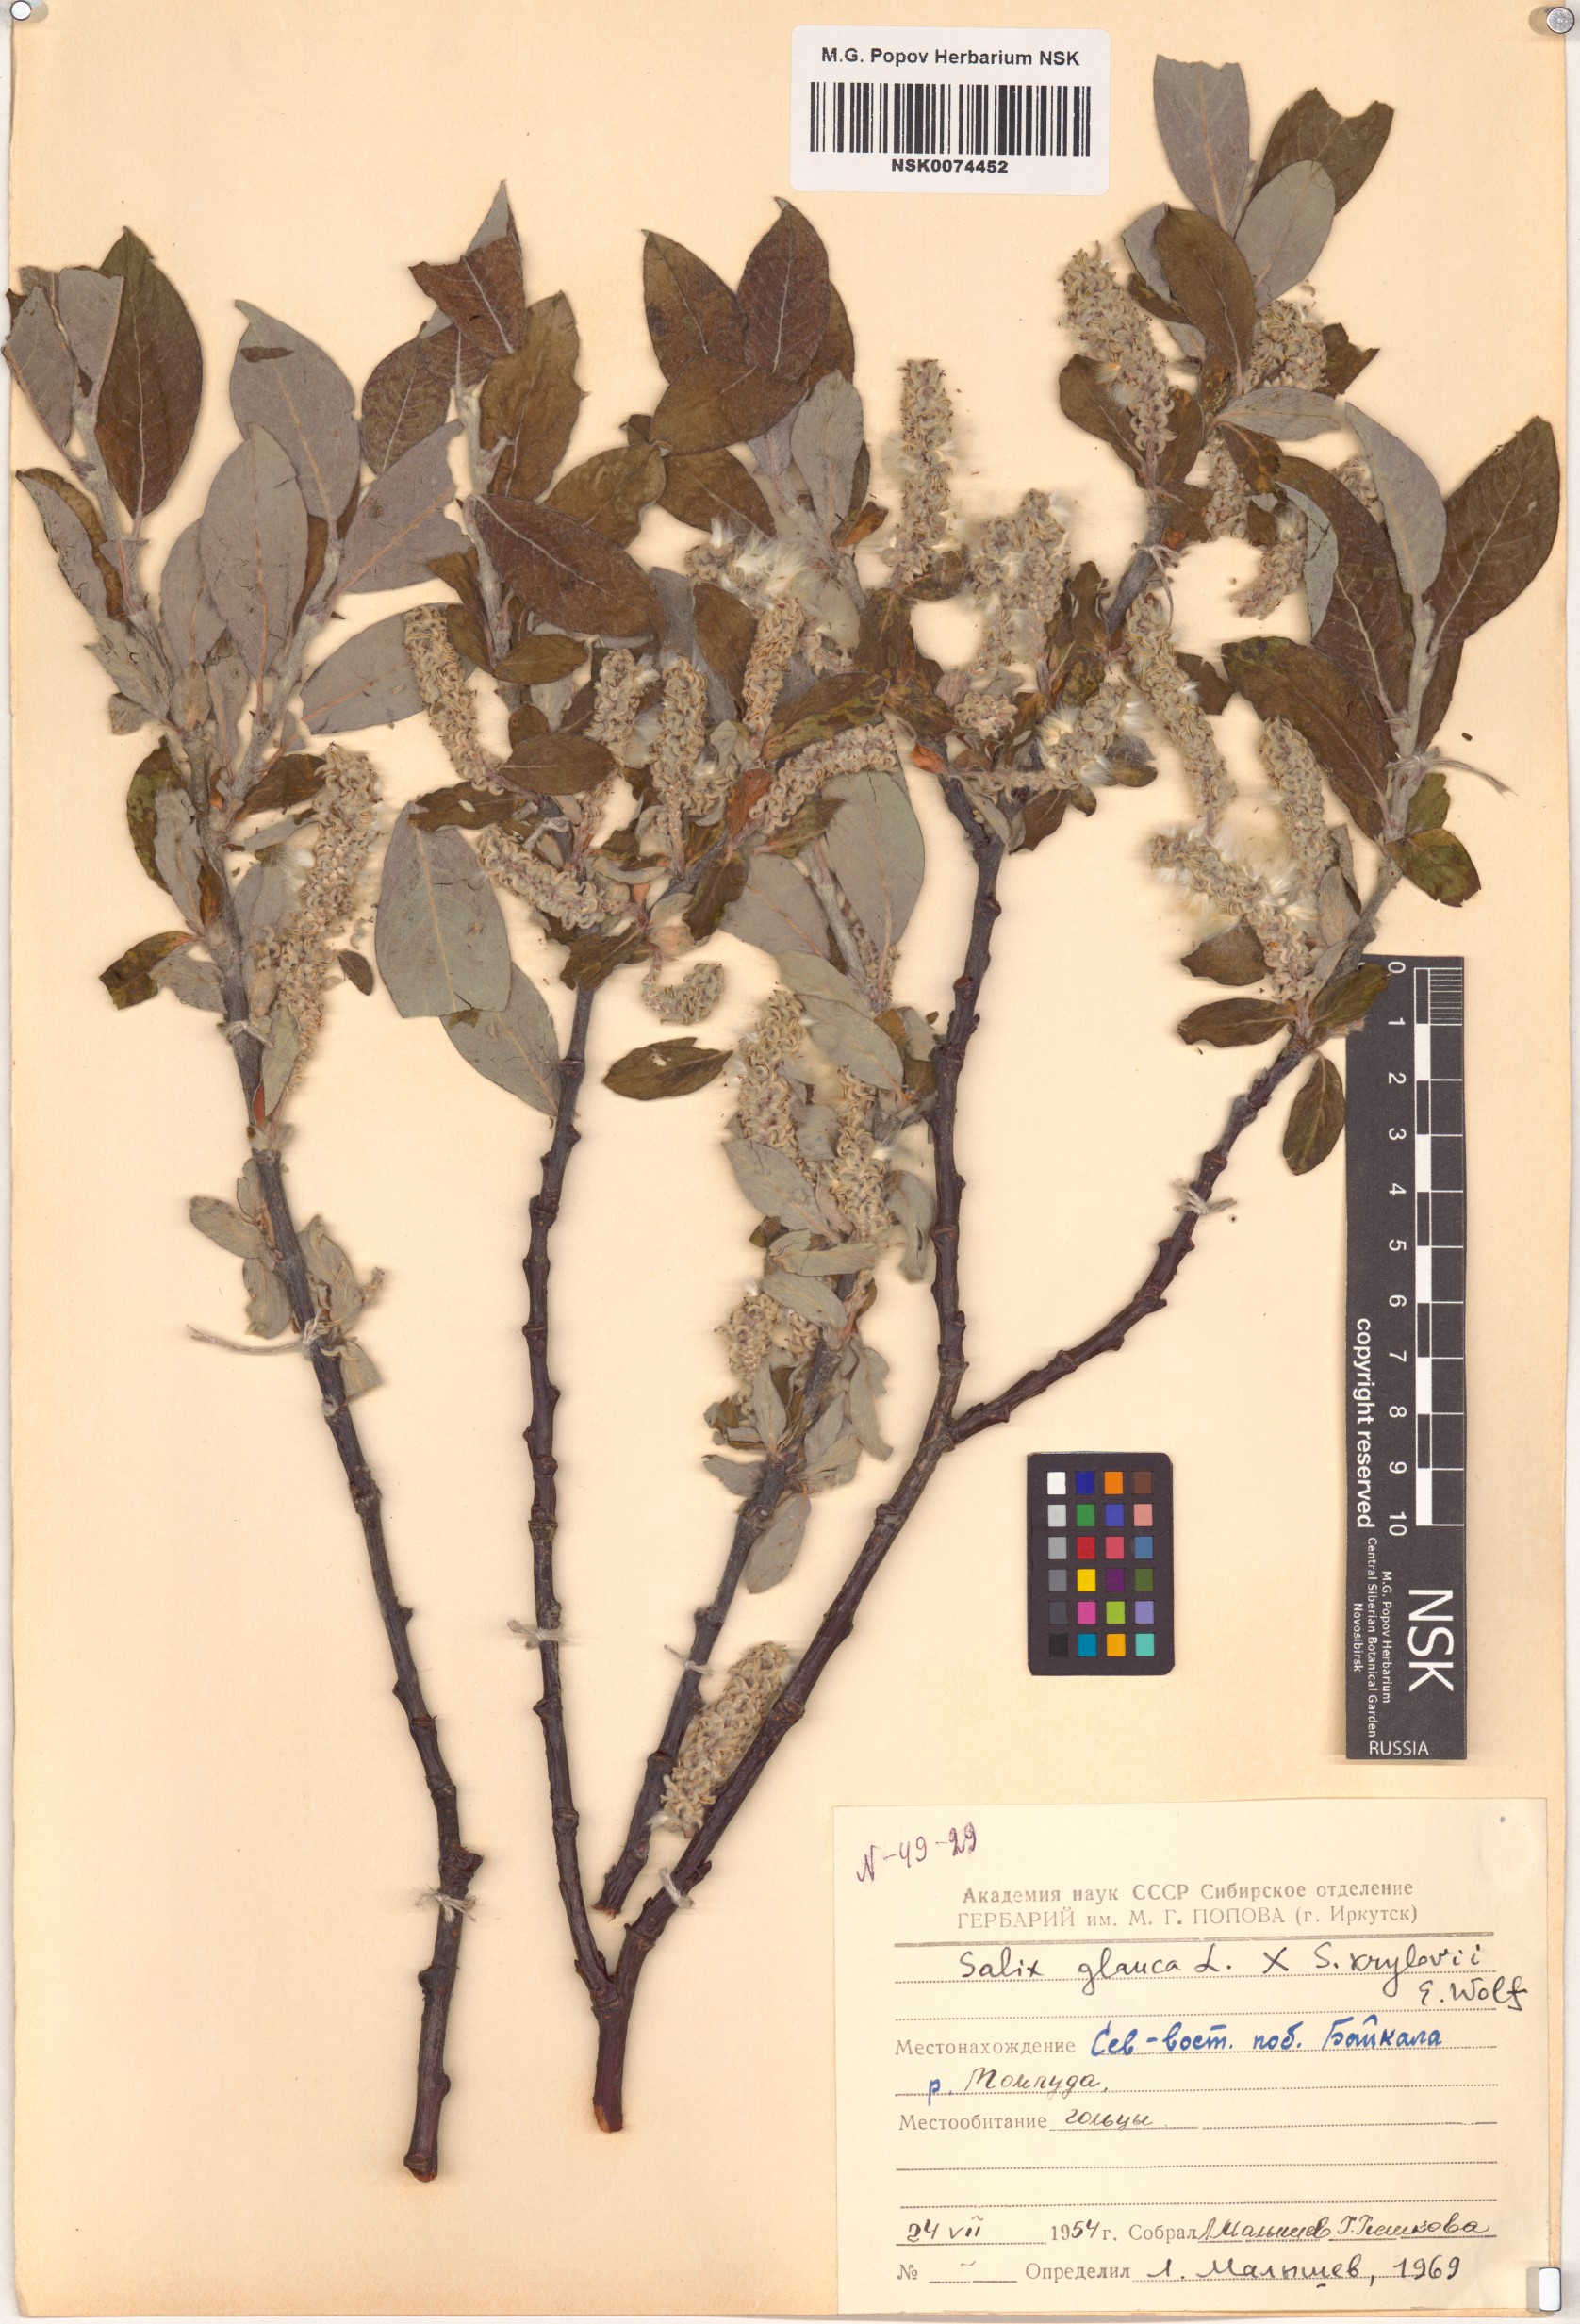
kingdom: Plantae
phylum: Tracheophyta
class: Magnoliopsida
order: Malpighiales
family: Salicaceae
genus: Salix
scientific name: Salix
